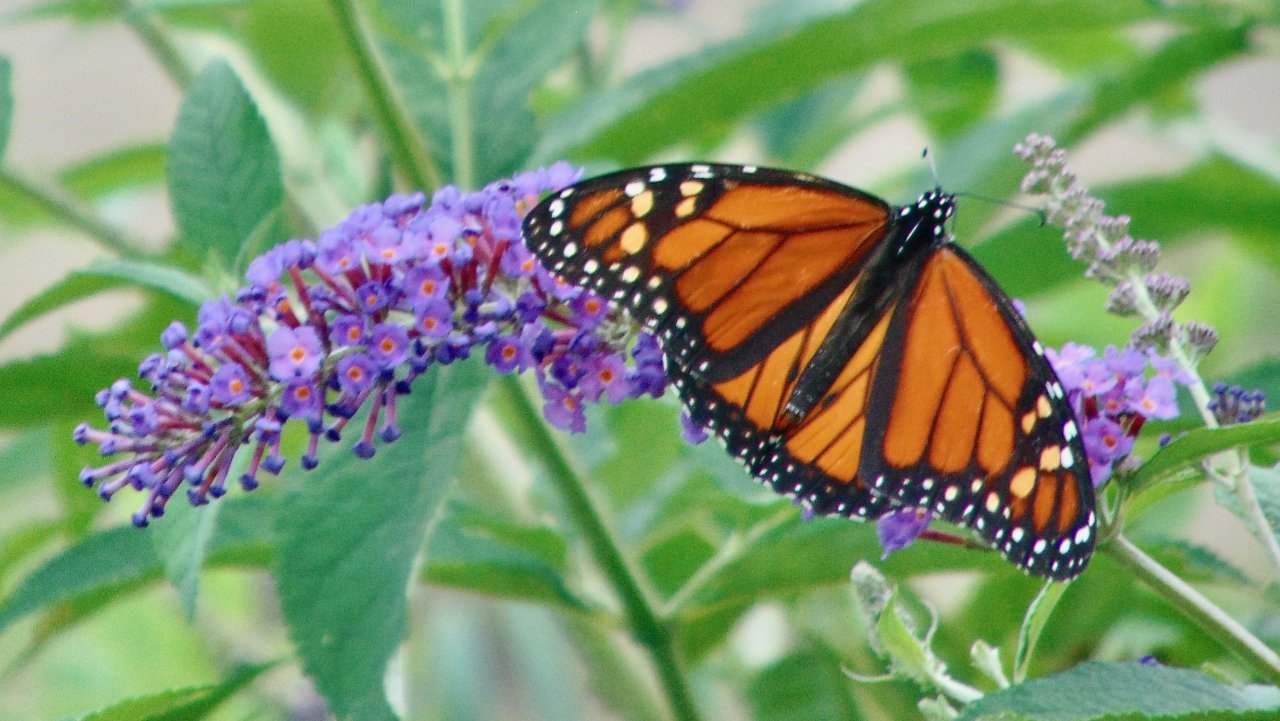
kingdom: Animalia
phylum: Arthropoda
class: Insecta
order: Lepidoptera
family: Nymphalidae
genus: Danaus
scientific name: Danaus plexippus
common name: Monarch
